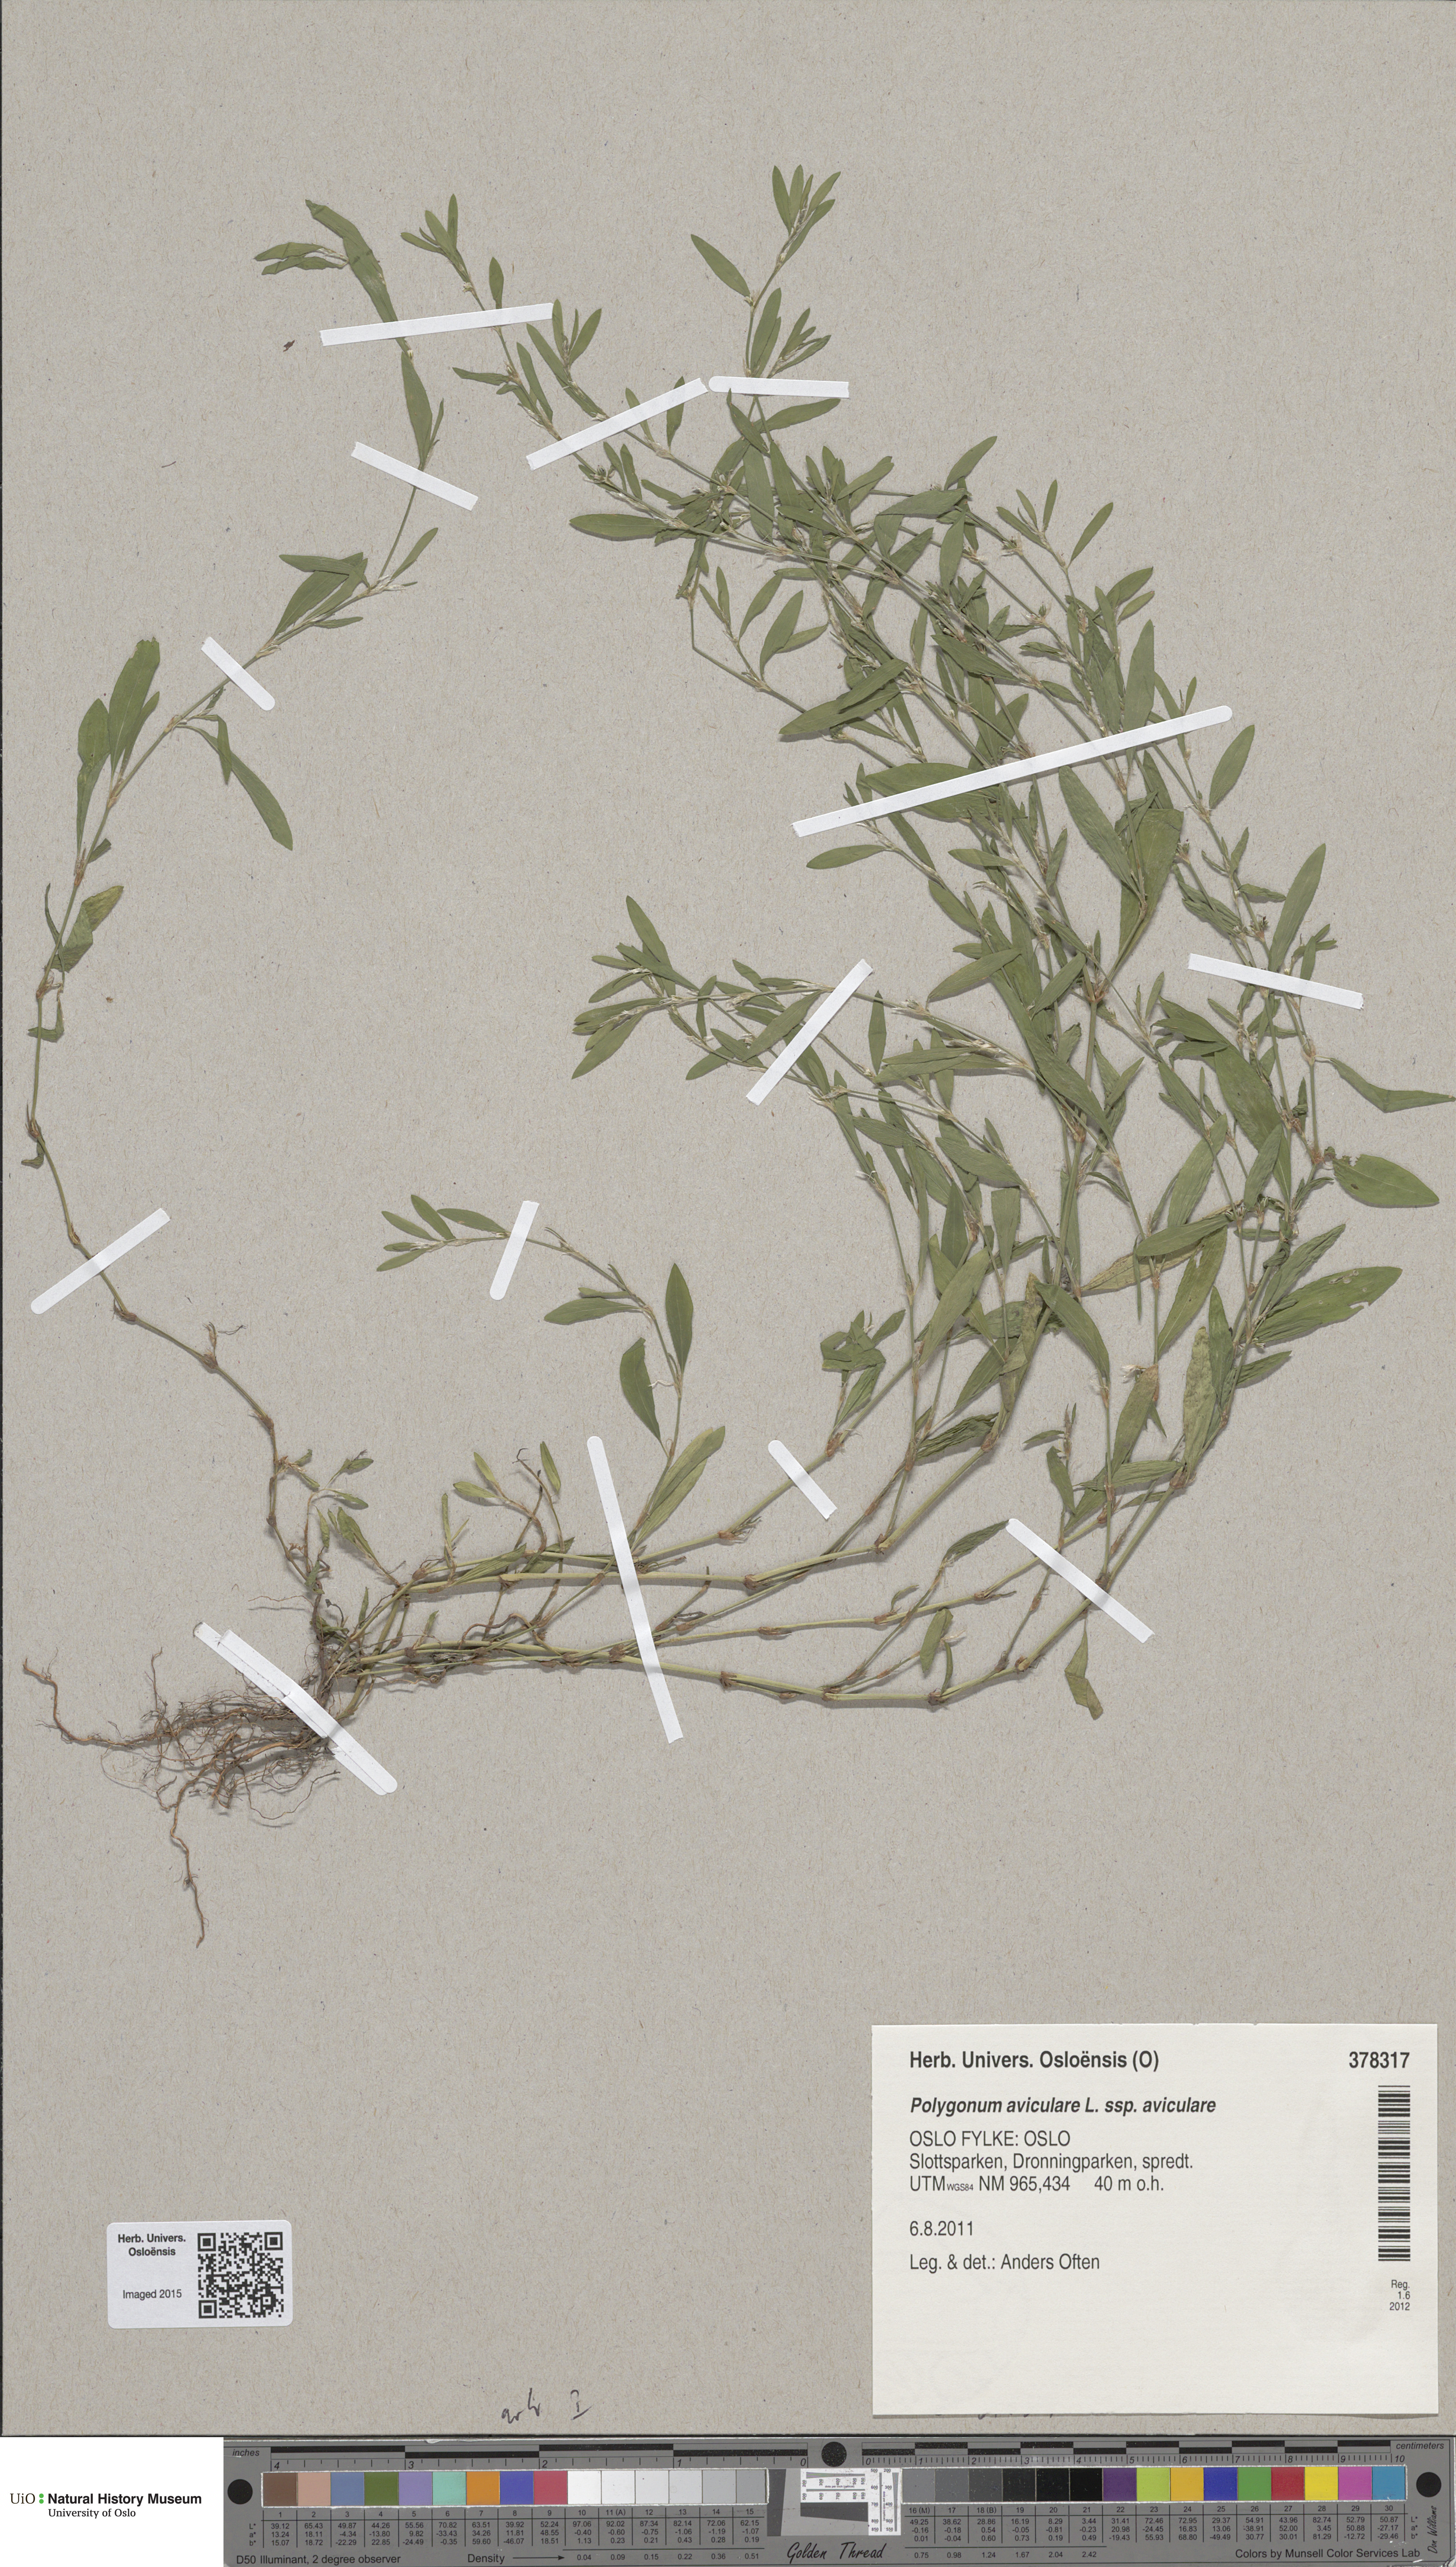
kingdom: Plantae
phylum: Tracheophyta
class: Magnoliopsida
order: Caryophyllales
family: Polygonaceae
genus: Polygonum
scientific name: Polygonum aviculare
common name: Prostrate knotweed
